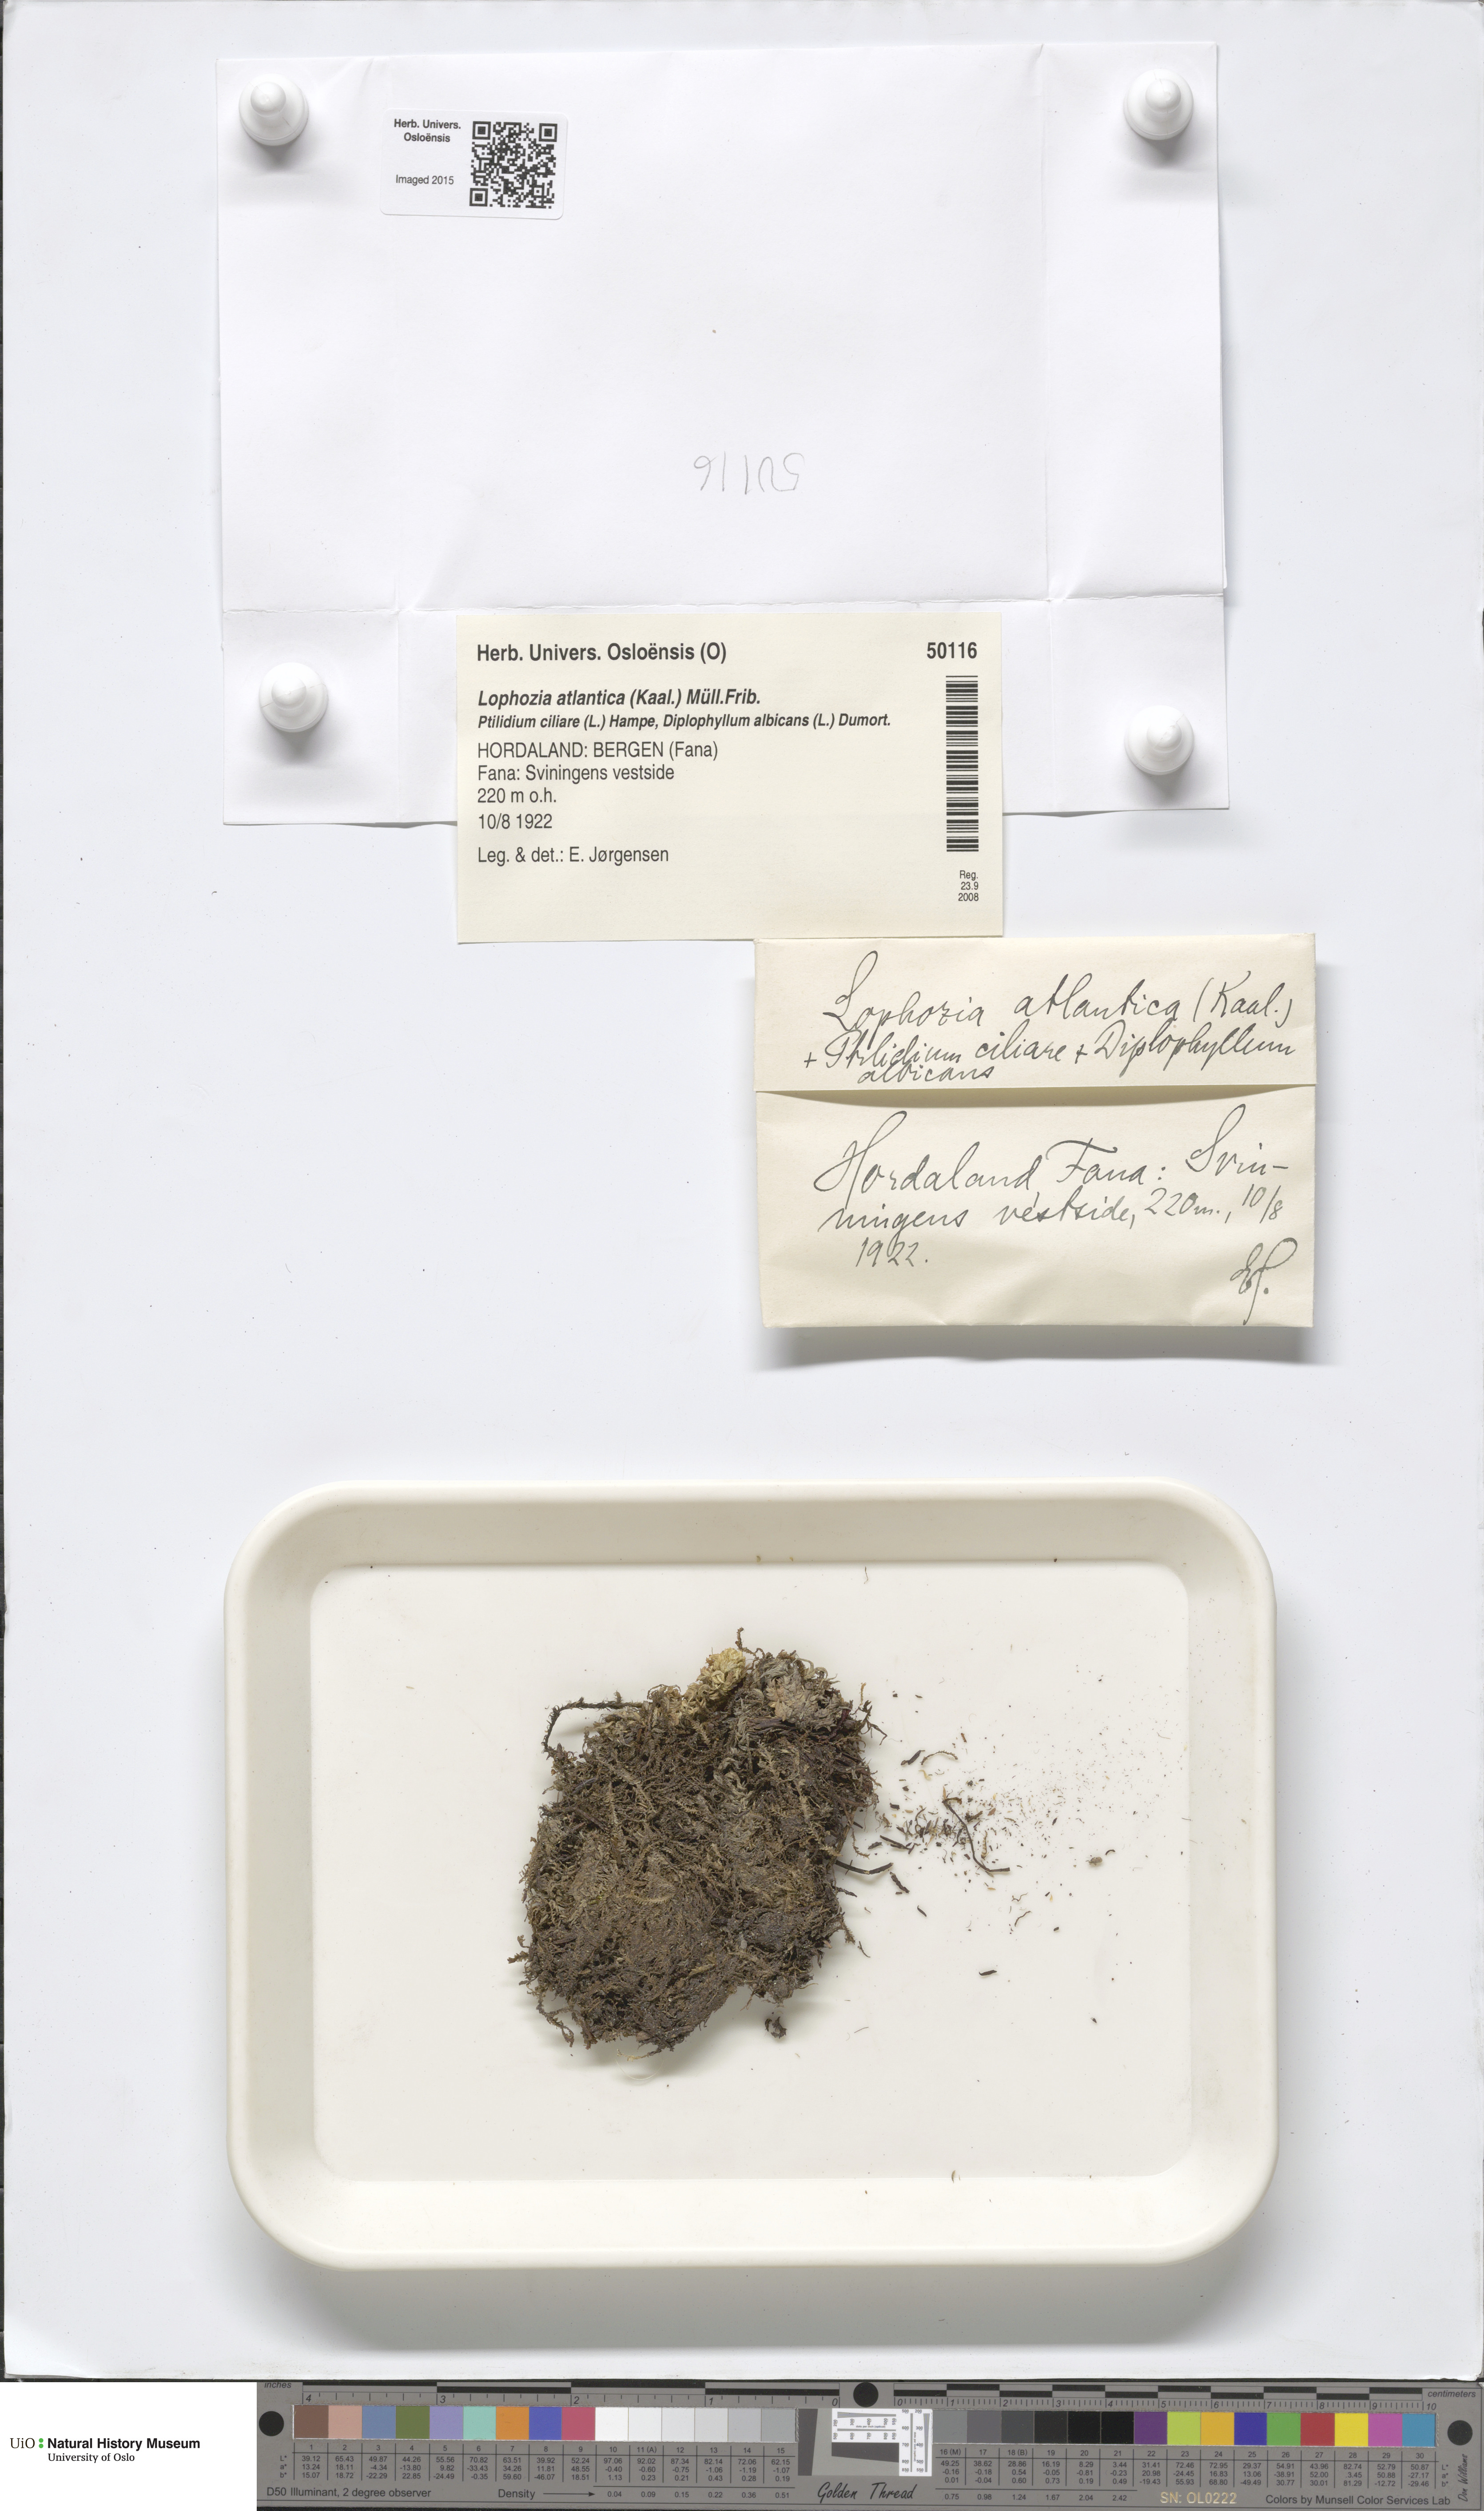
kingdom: Plantae
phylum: Marchantiophyta
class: Jungermanniopsida
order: Jungermanniales
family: Anastrophyllaceae
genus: Orthocaulis
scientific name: Orthocaulis atlanticus
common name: Atlantic pawwort
